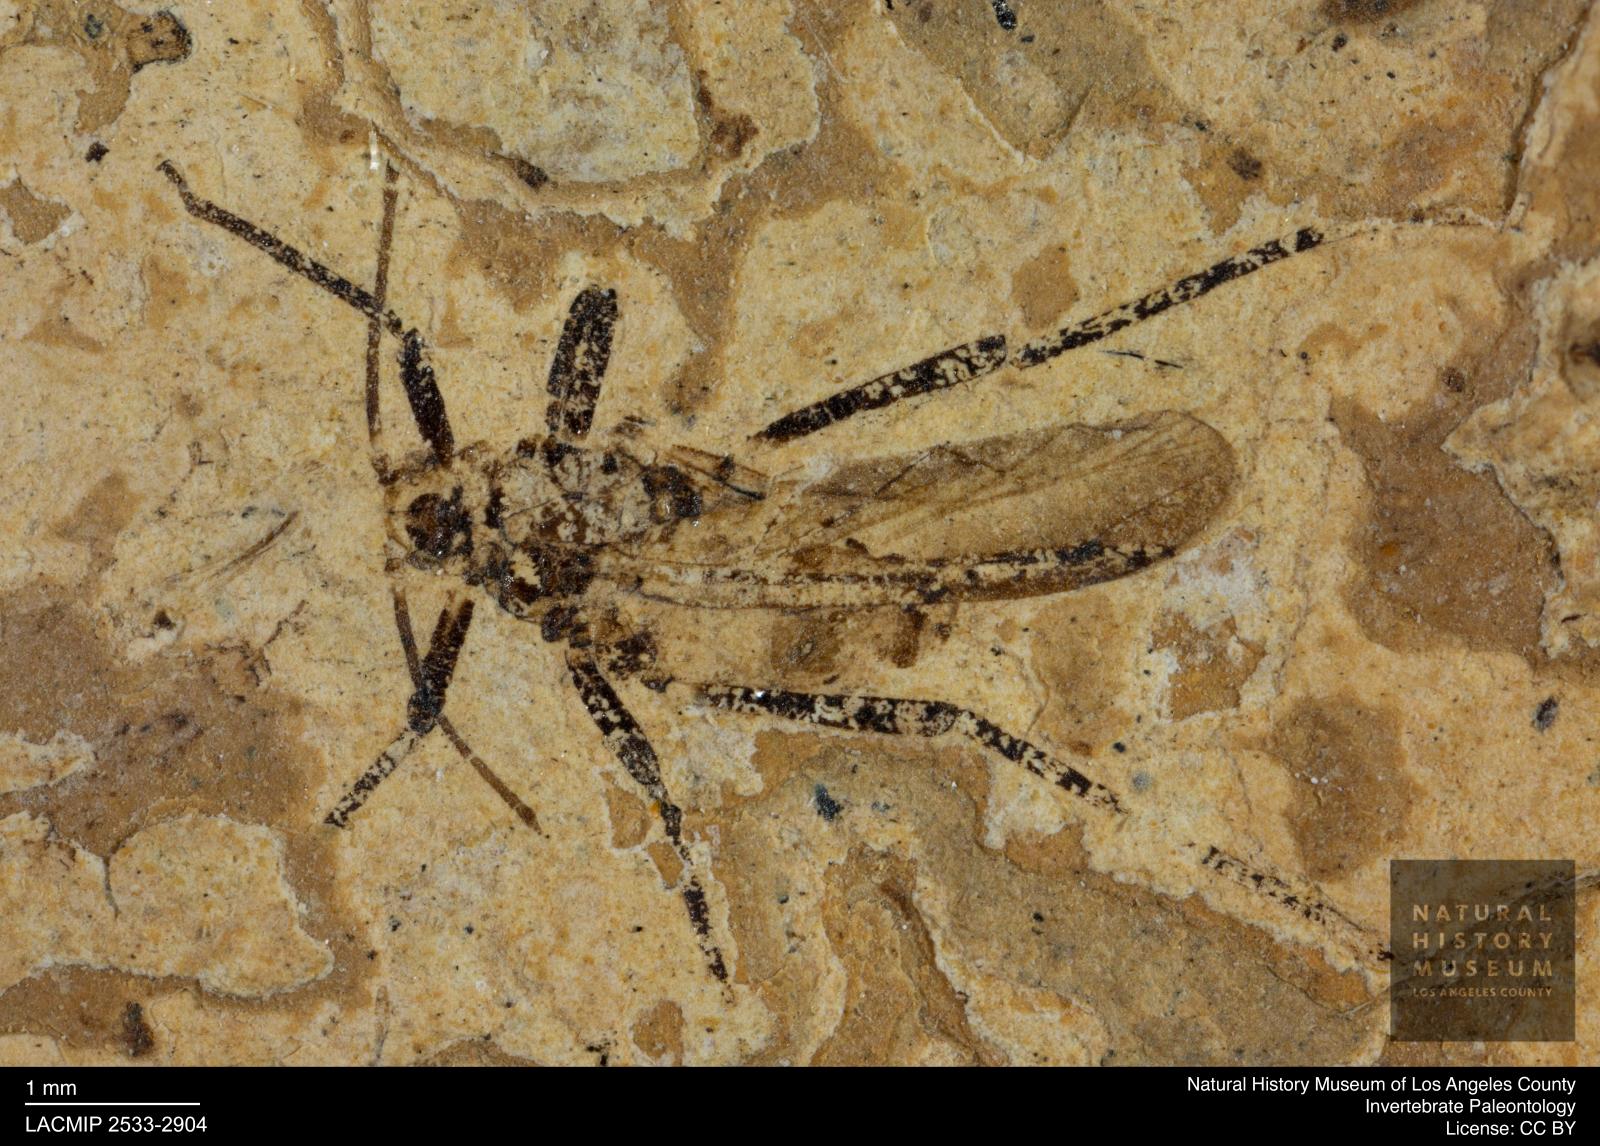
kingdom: Animalia
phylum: Arthropoda
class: Insecta
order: Hemiptera
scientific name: Hemiptera
